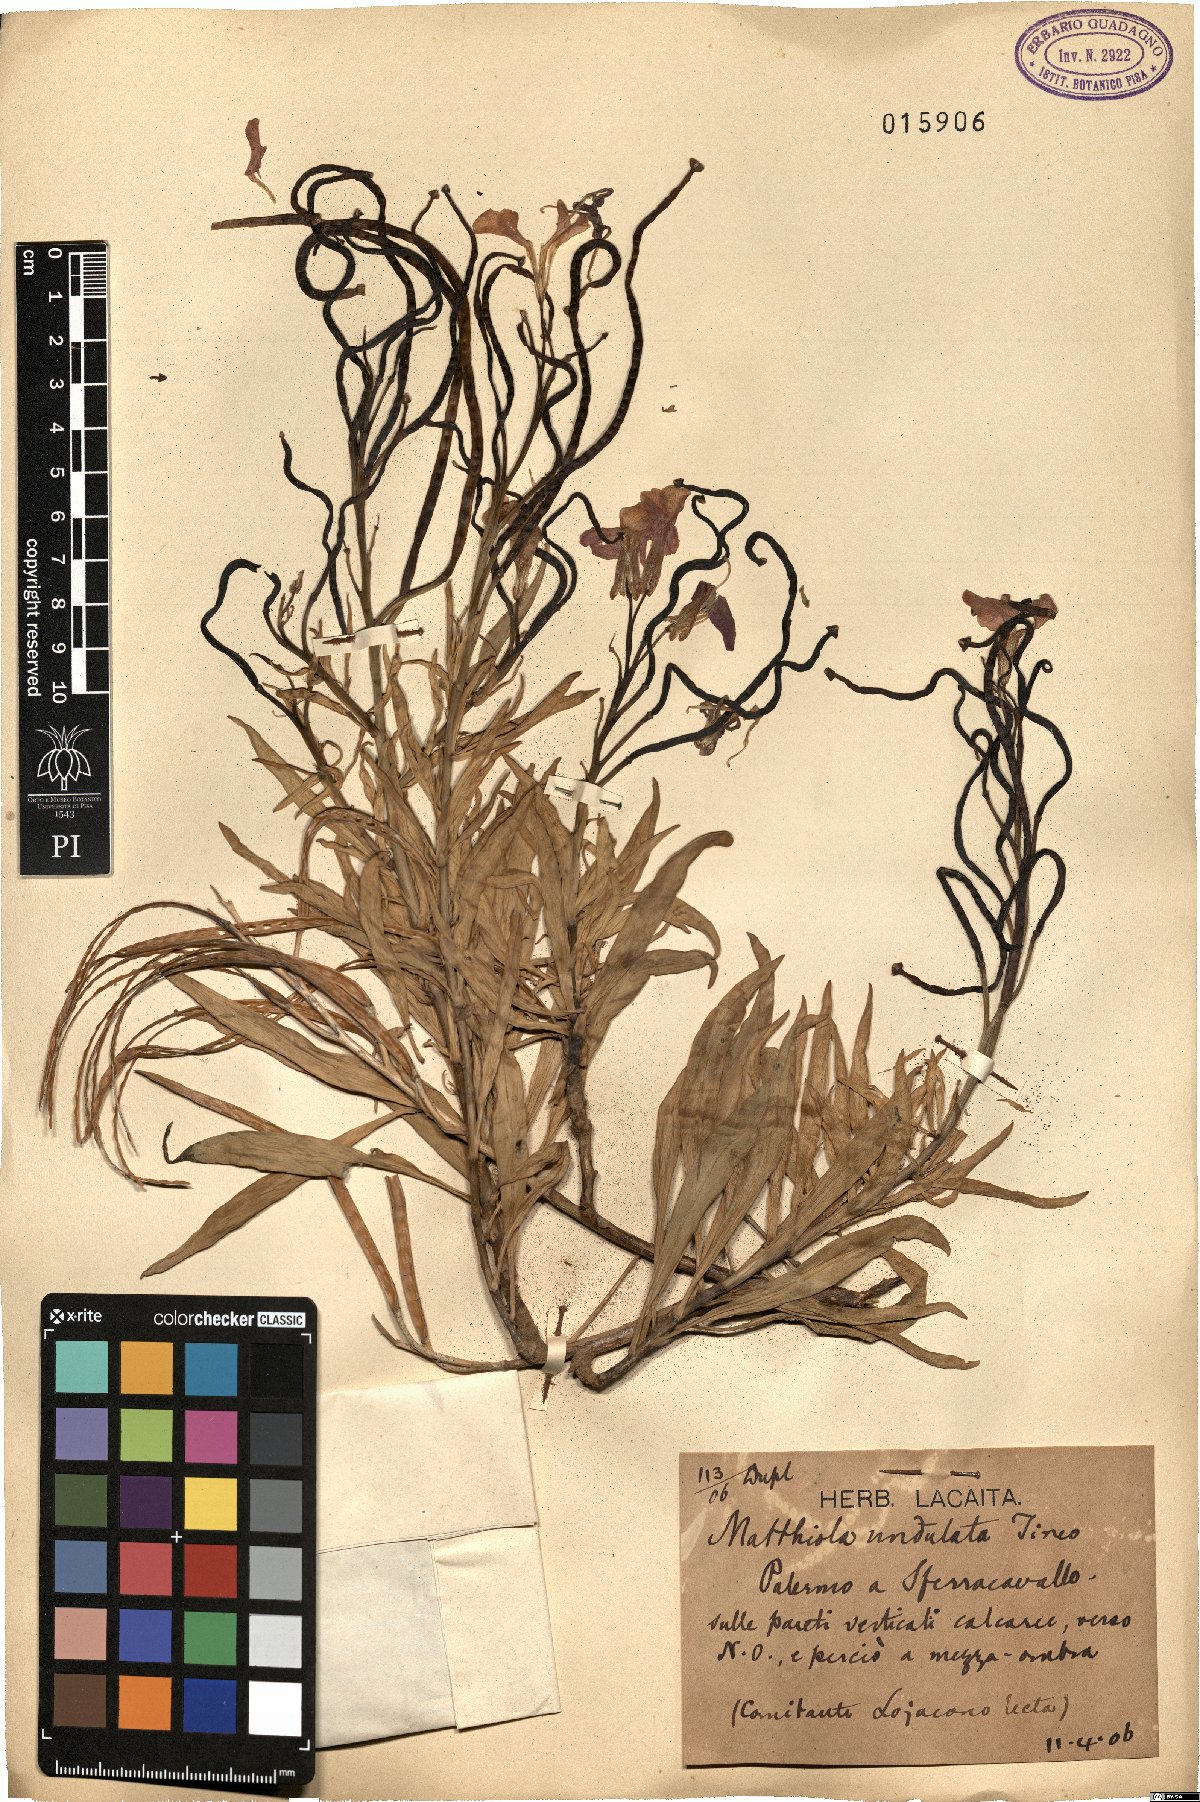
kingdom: Plantae
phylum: Tracheophyta
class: Magnoliopsida
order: Brassicales
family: Brassicaceae
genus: Matthiola
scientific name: Matthiola incana
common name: Hoary stock
